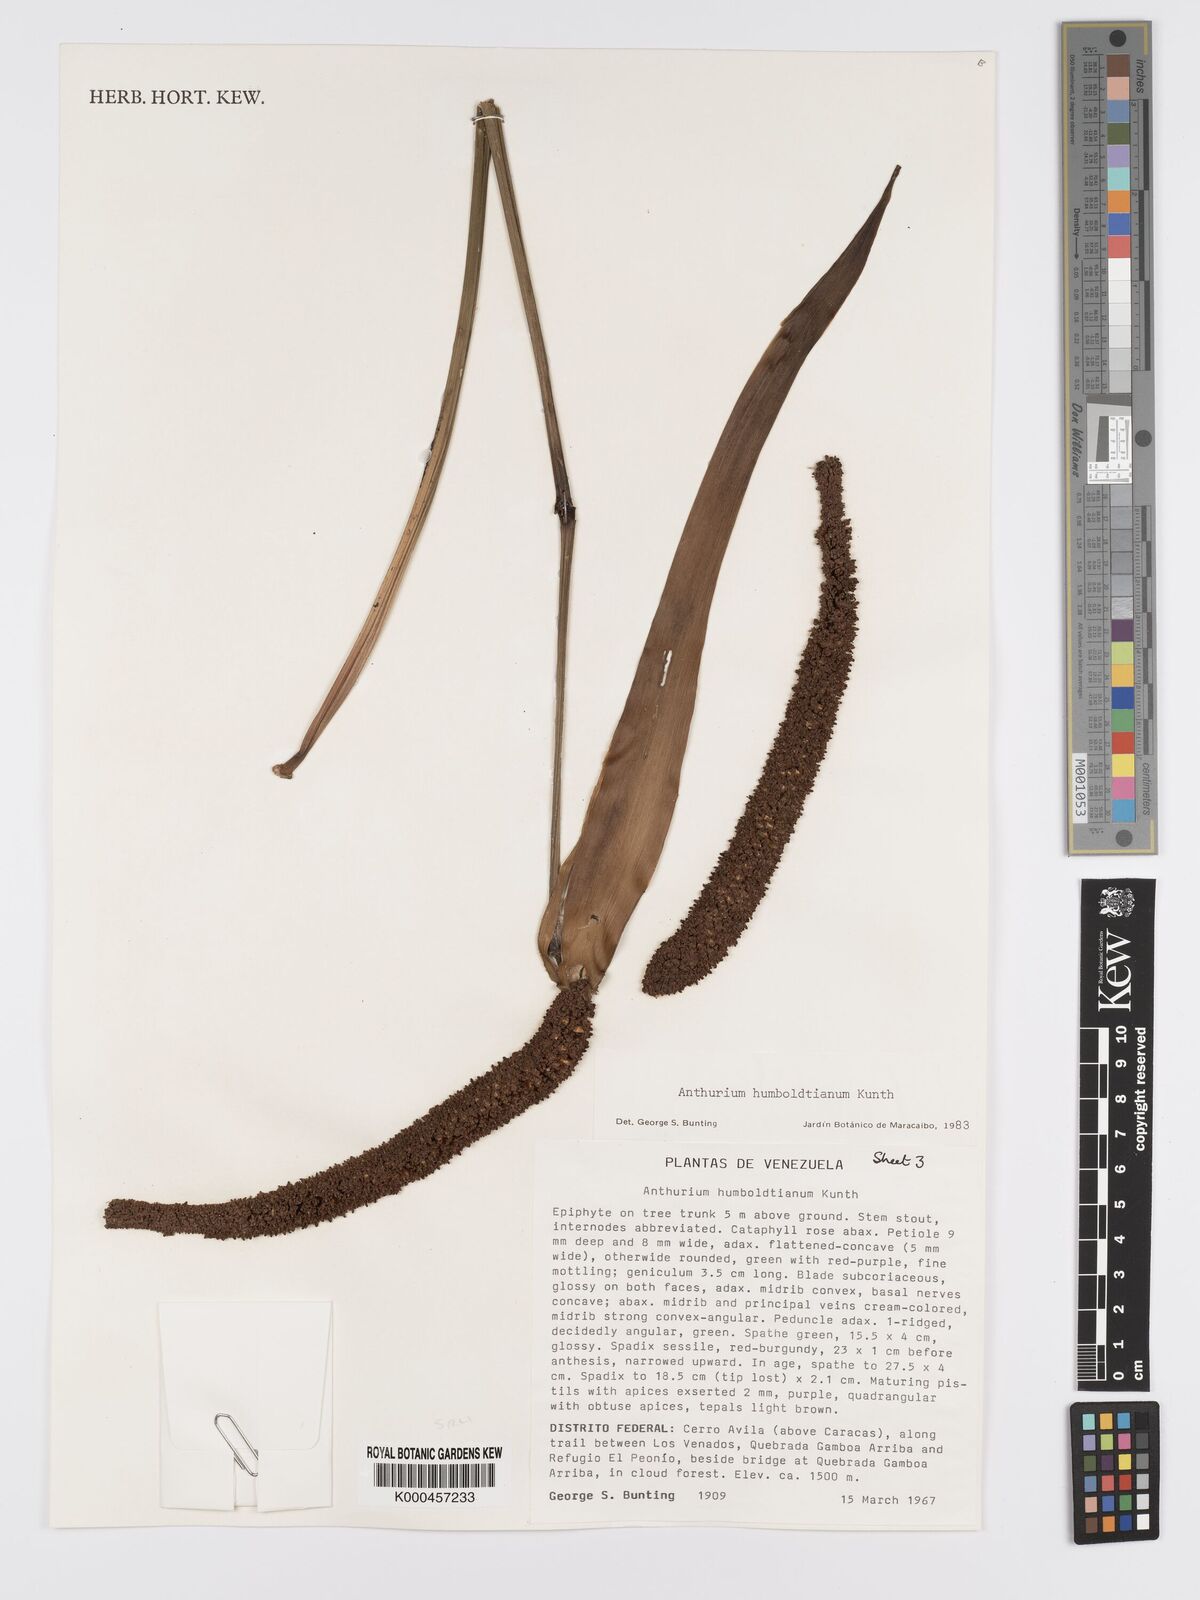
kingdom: Plantae
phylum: Tracheophyta
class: Liliopsida
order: Alismatales
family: Araceae
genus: Anthurium
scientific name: Anthurium
